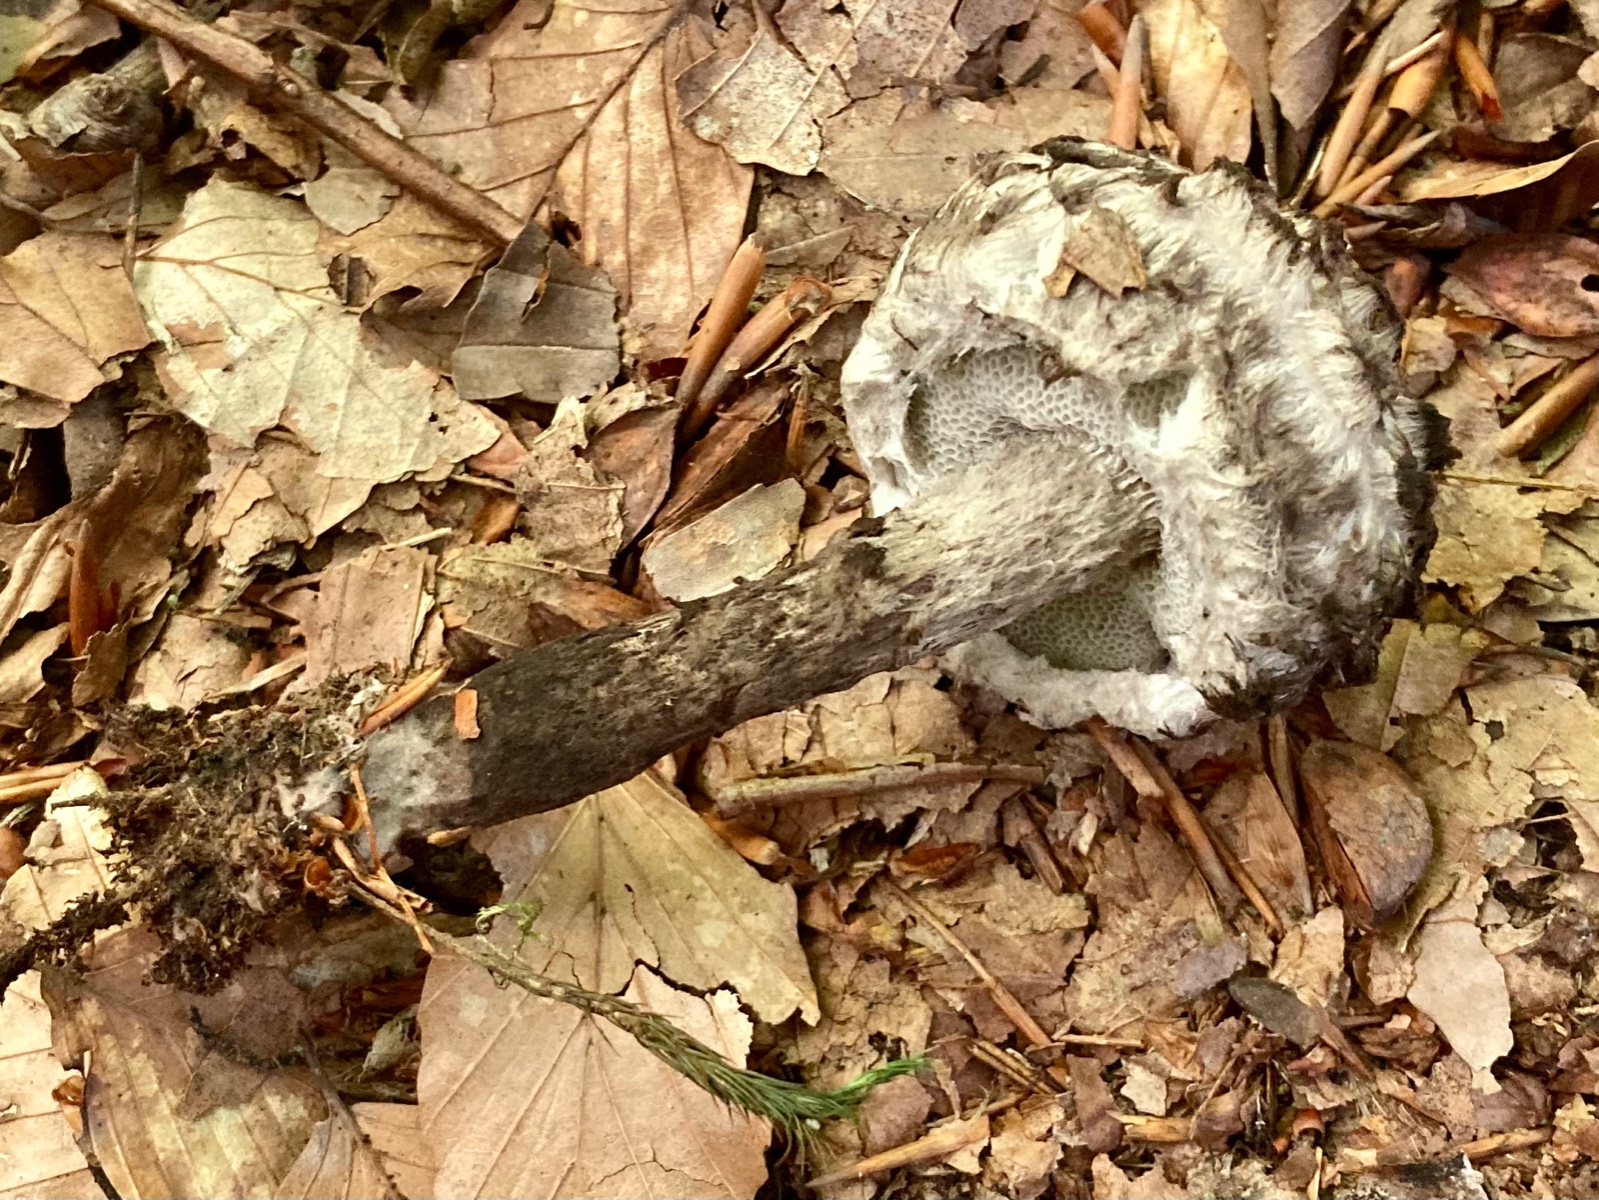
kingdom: Fungi
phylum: Basidiomycota
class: Agaricomycetes
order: Boletales
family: Boletaceae
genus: Strobilomyces
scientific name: Strobilomyces strobilaceus
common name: koglerørhat
